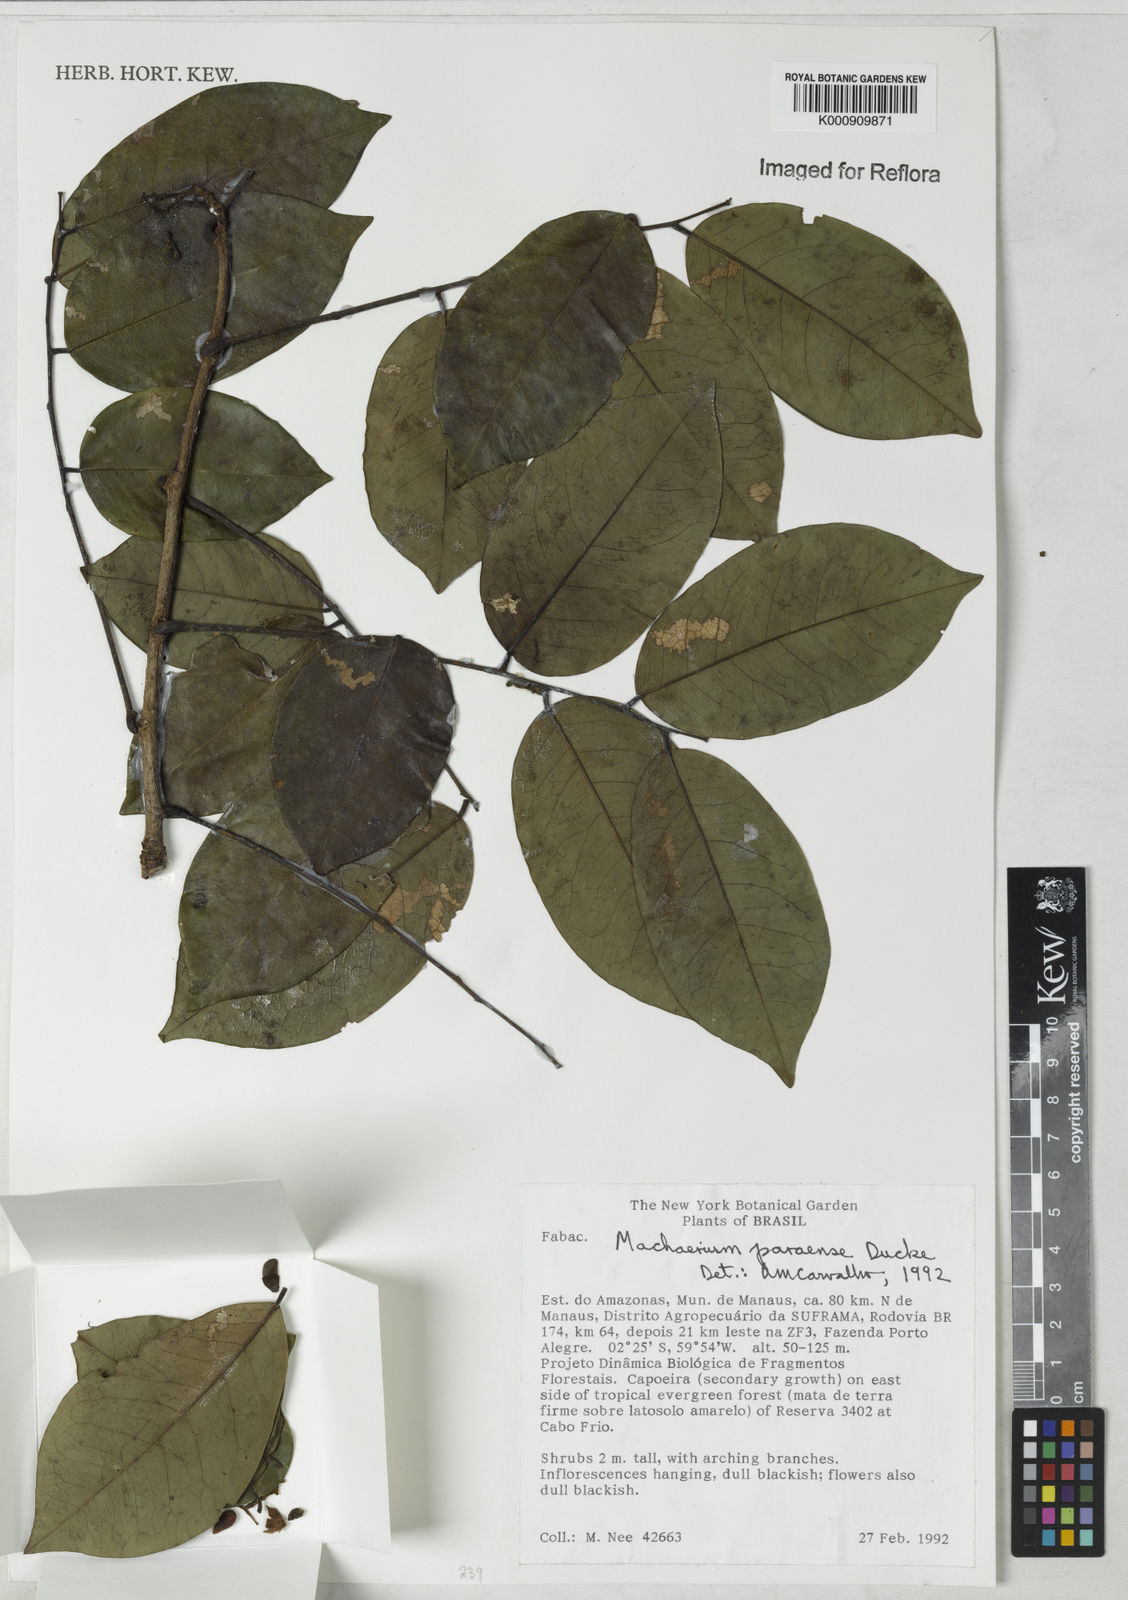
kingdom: Plantae
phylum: Tracheophyta
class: Magnoliopsida
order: Fabales
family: Fabaceae
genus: Machaerium
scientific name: Machaerium paraense
